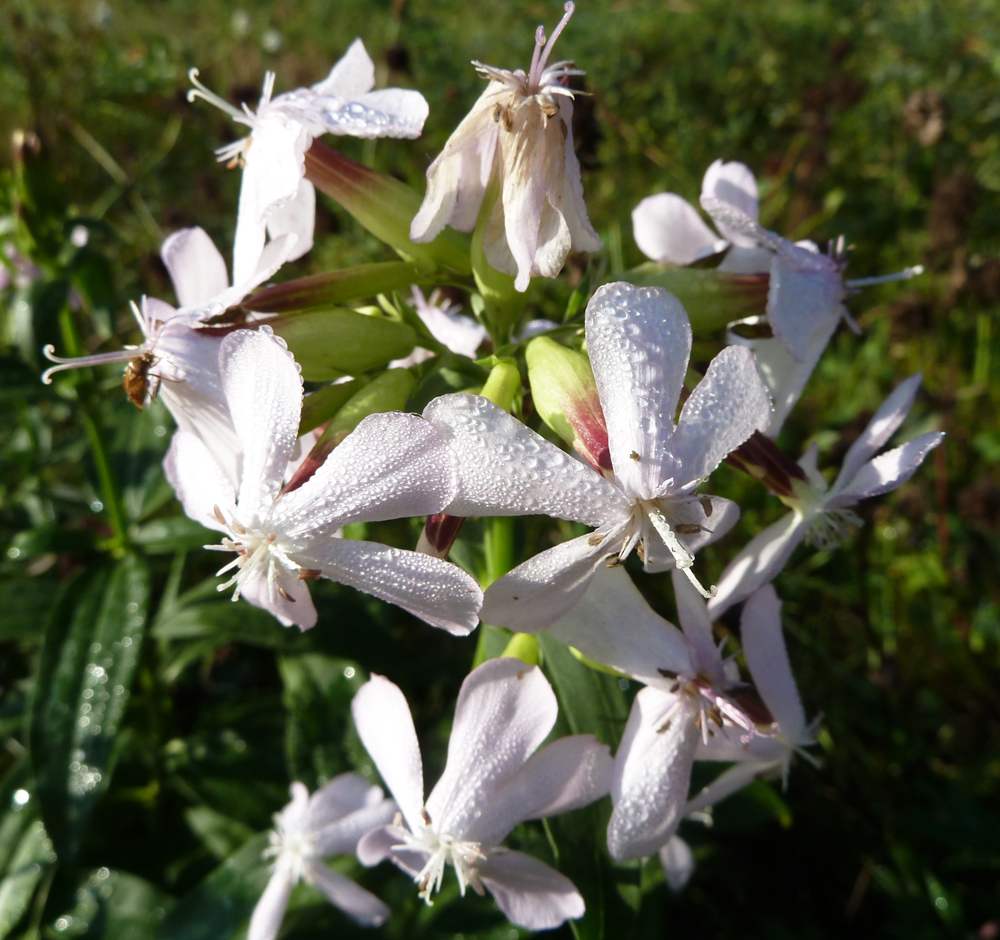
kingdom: Plantae
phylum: Tracheophyta
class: Magnoliopsida
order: Caryophyllales
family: Caryophyllaceae
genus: Saponaria
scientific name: Saponaria officinalis
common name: Soapwort
